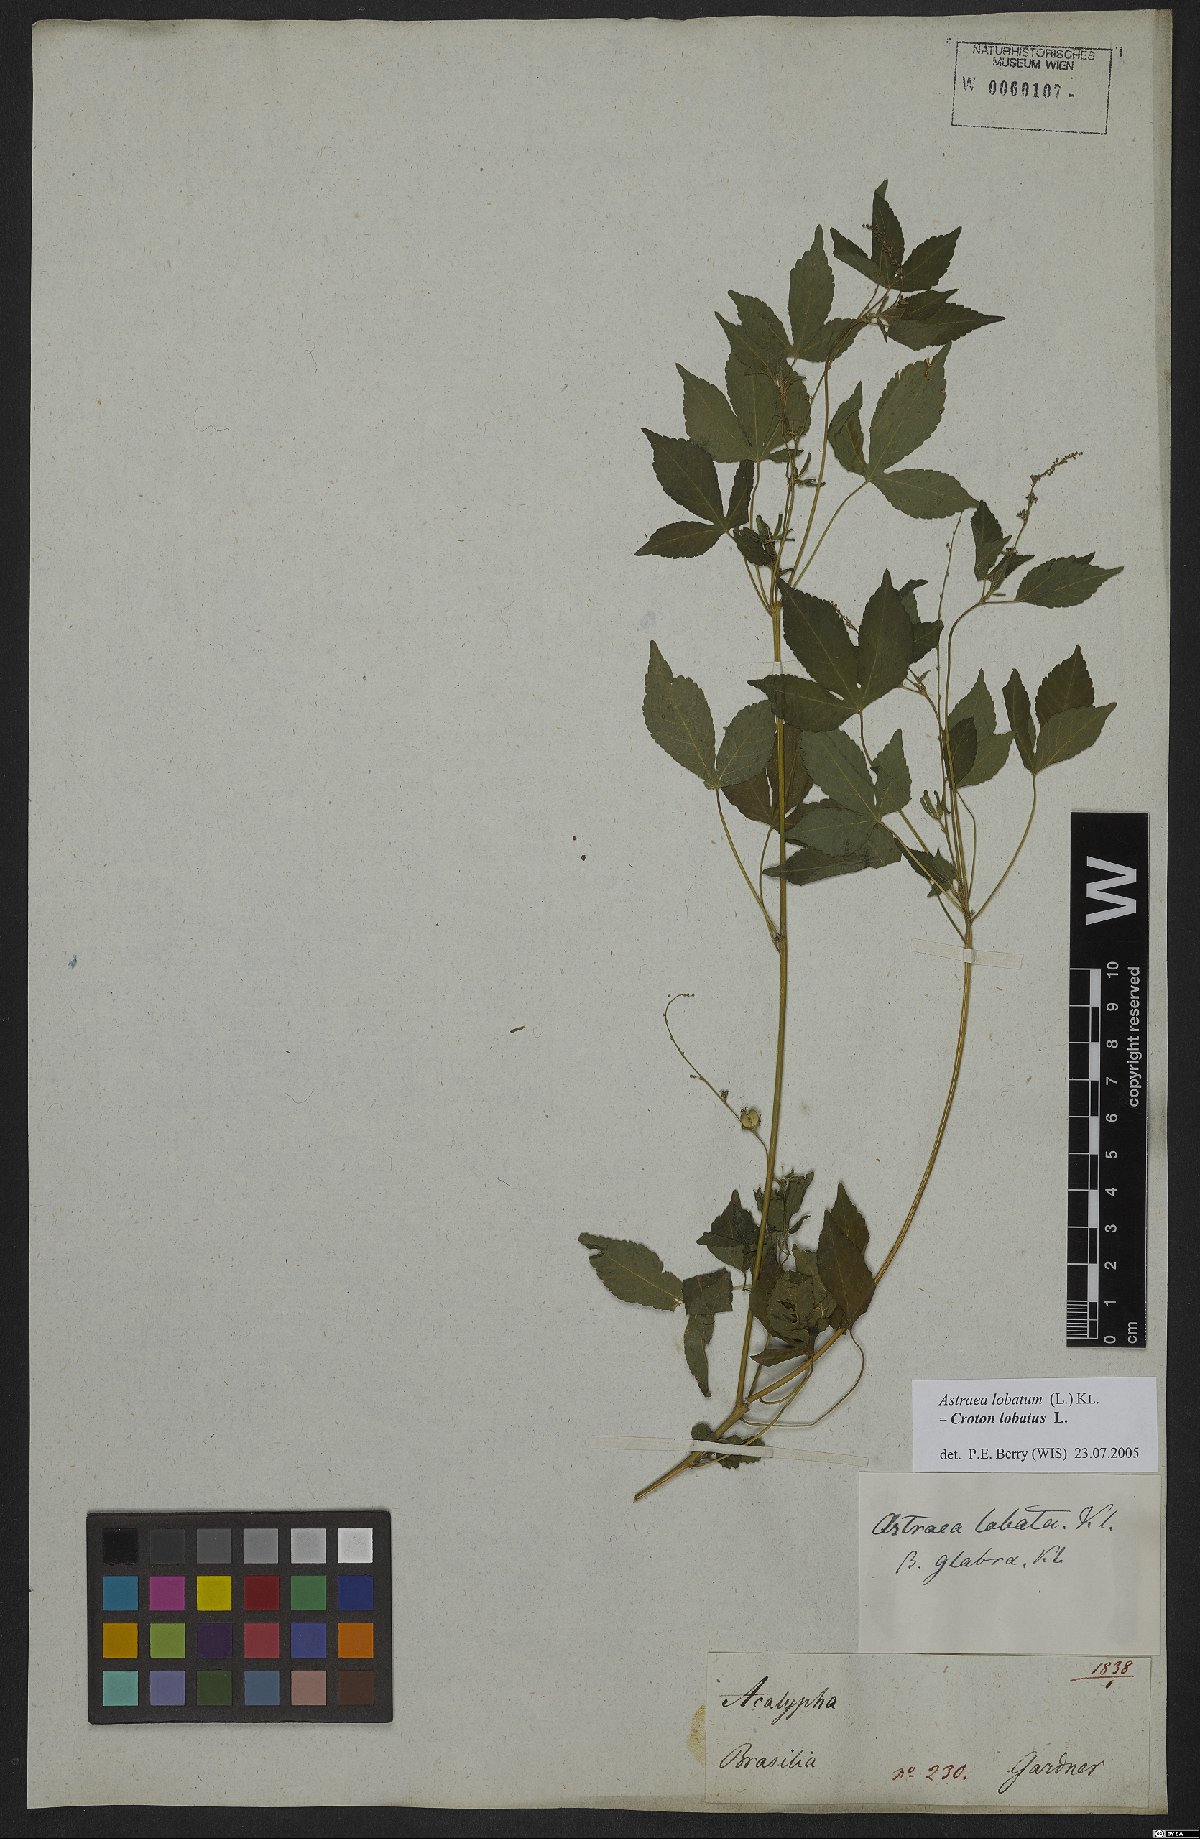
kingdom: Plantae
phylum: Tracheophyta
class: Magnoliopsida
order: Malpighiales
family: Euphorbiaceae
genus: Croton
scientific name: Croton lobatus
